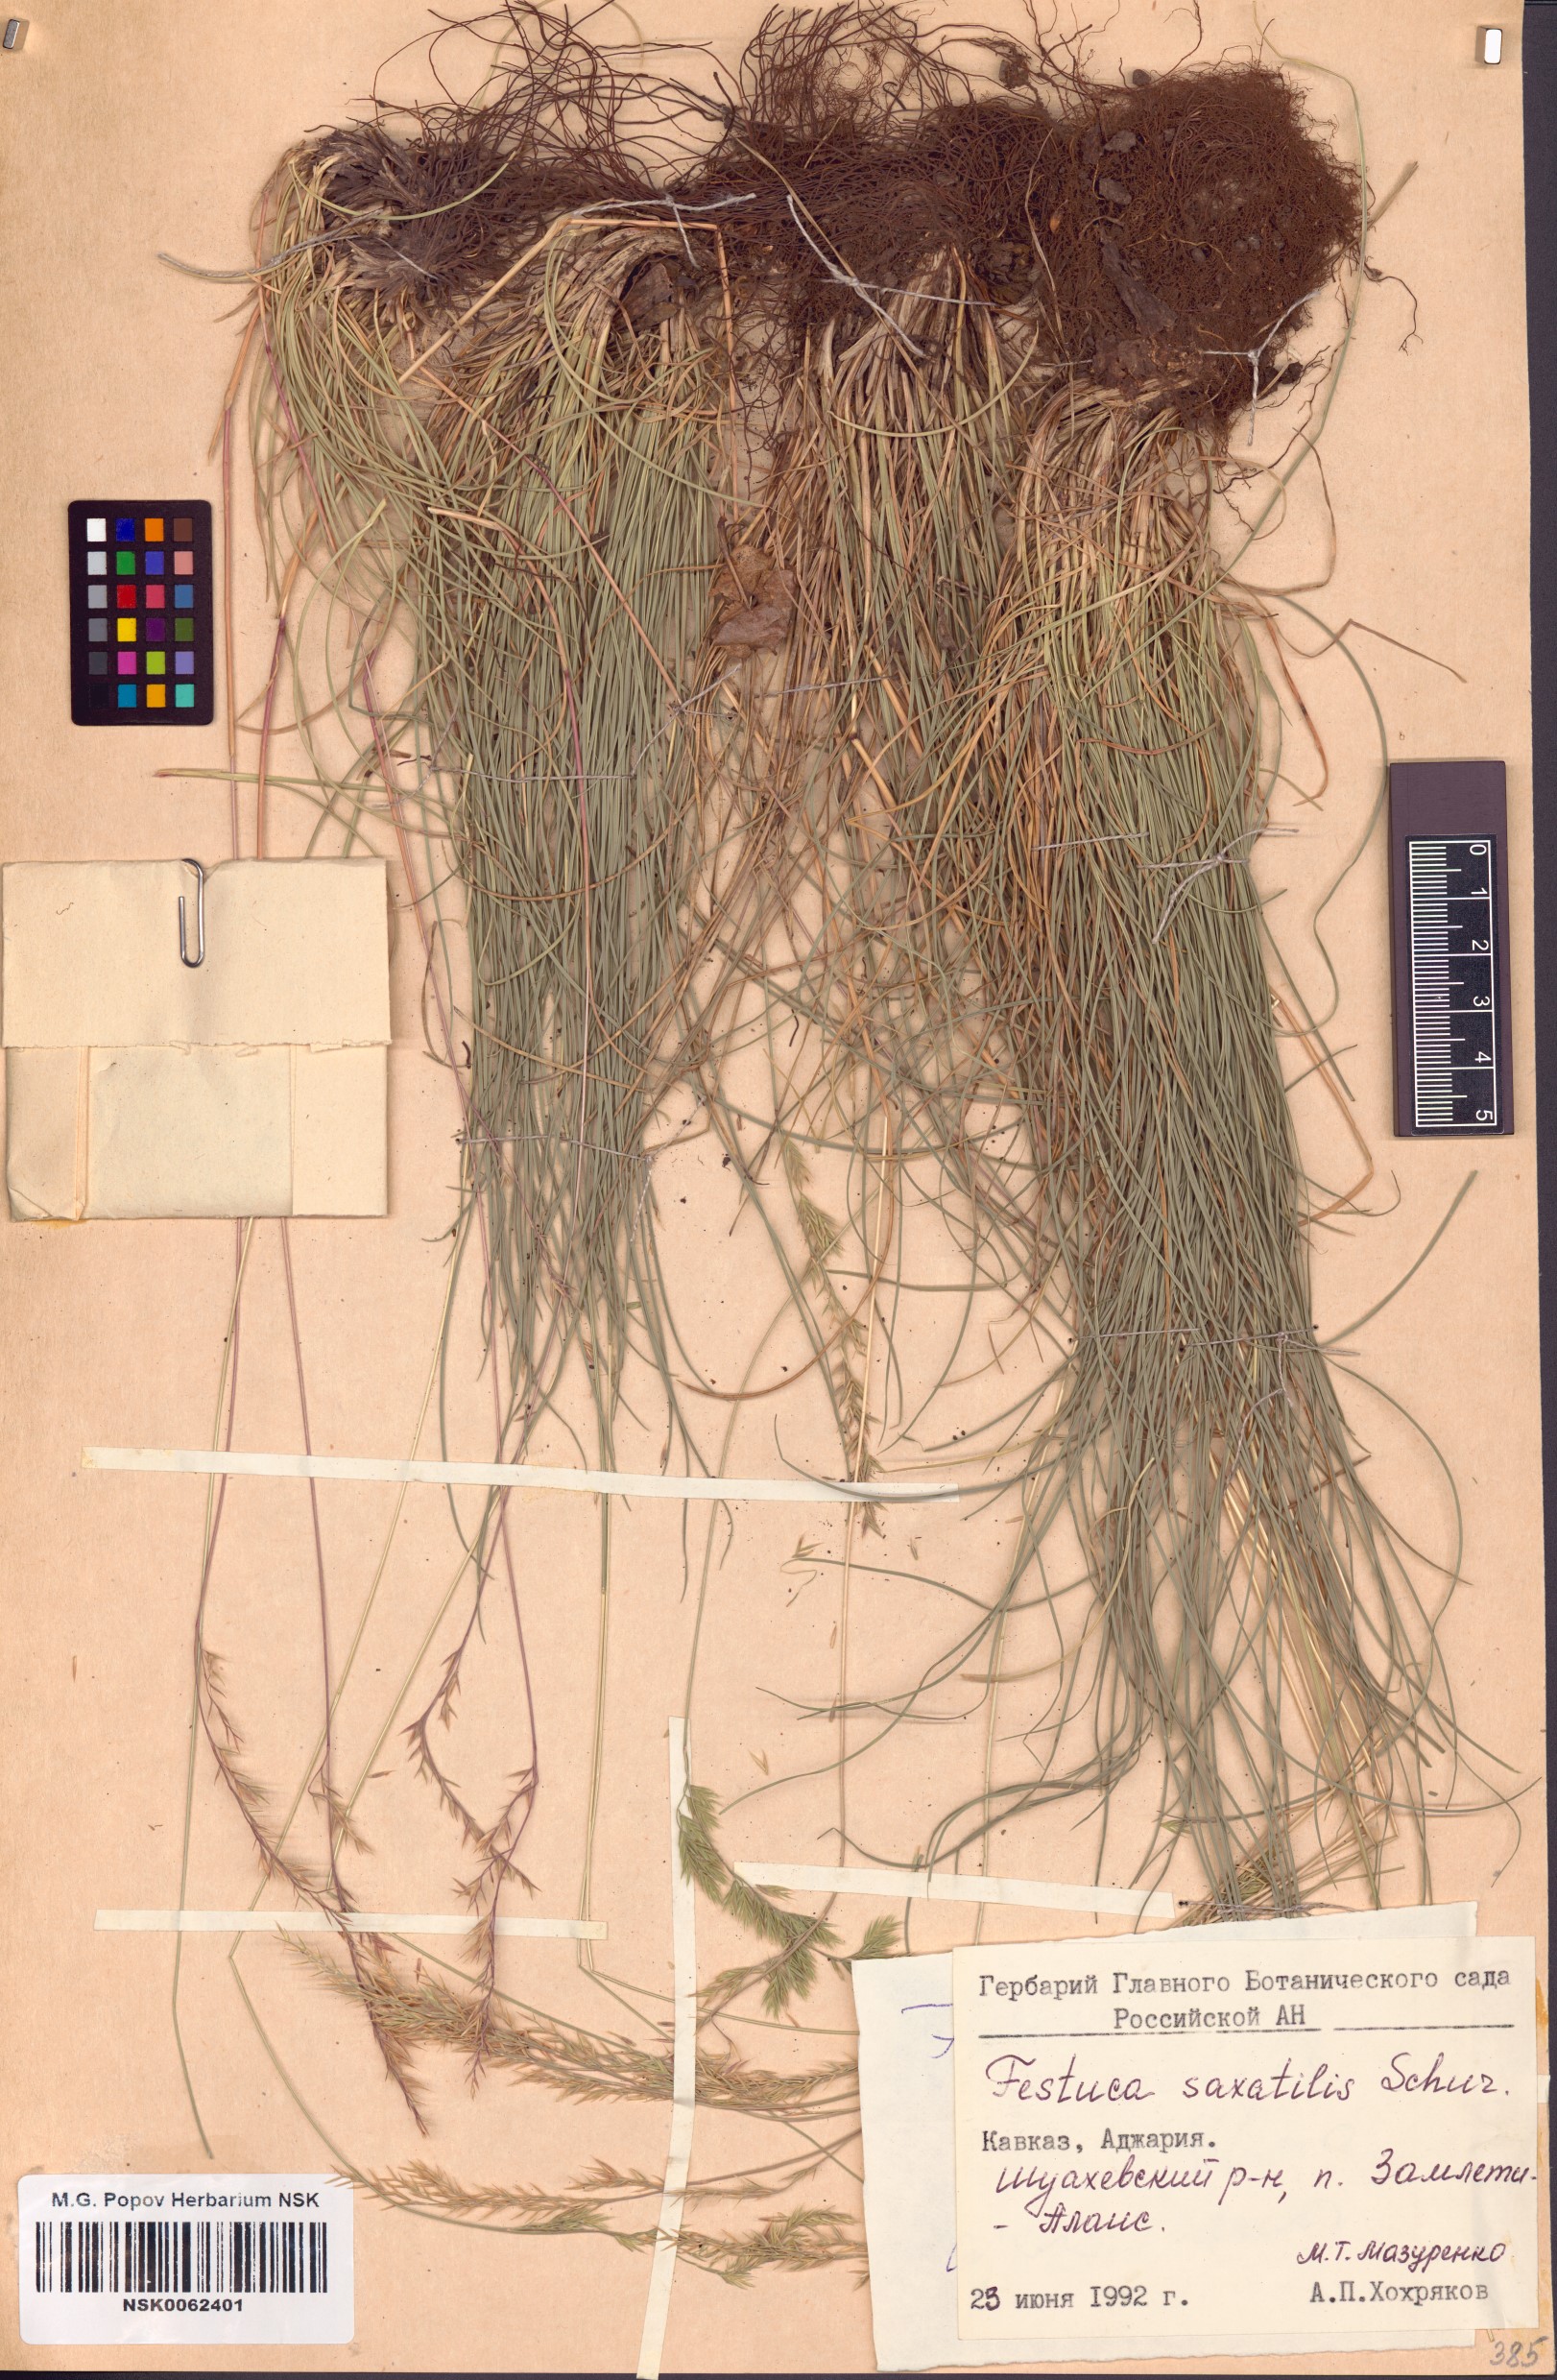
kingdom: Plantae
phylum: Tracheophyta
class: Liliopsida
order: Poales
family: Poaceae
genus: Festuca
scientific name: Festuca saxatilis
